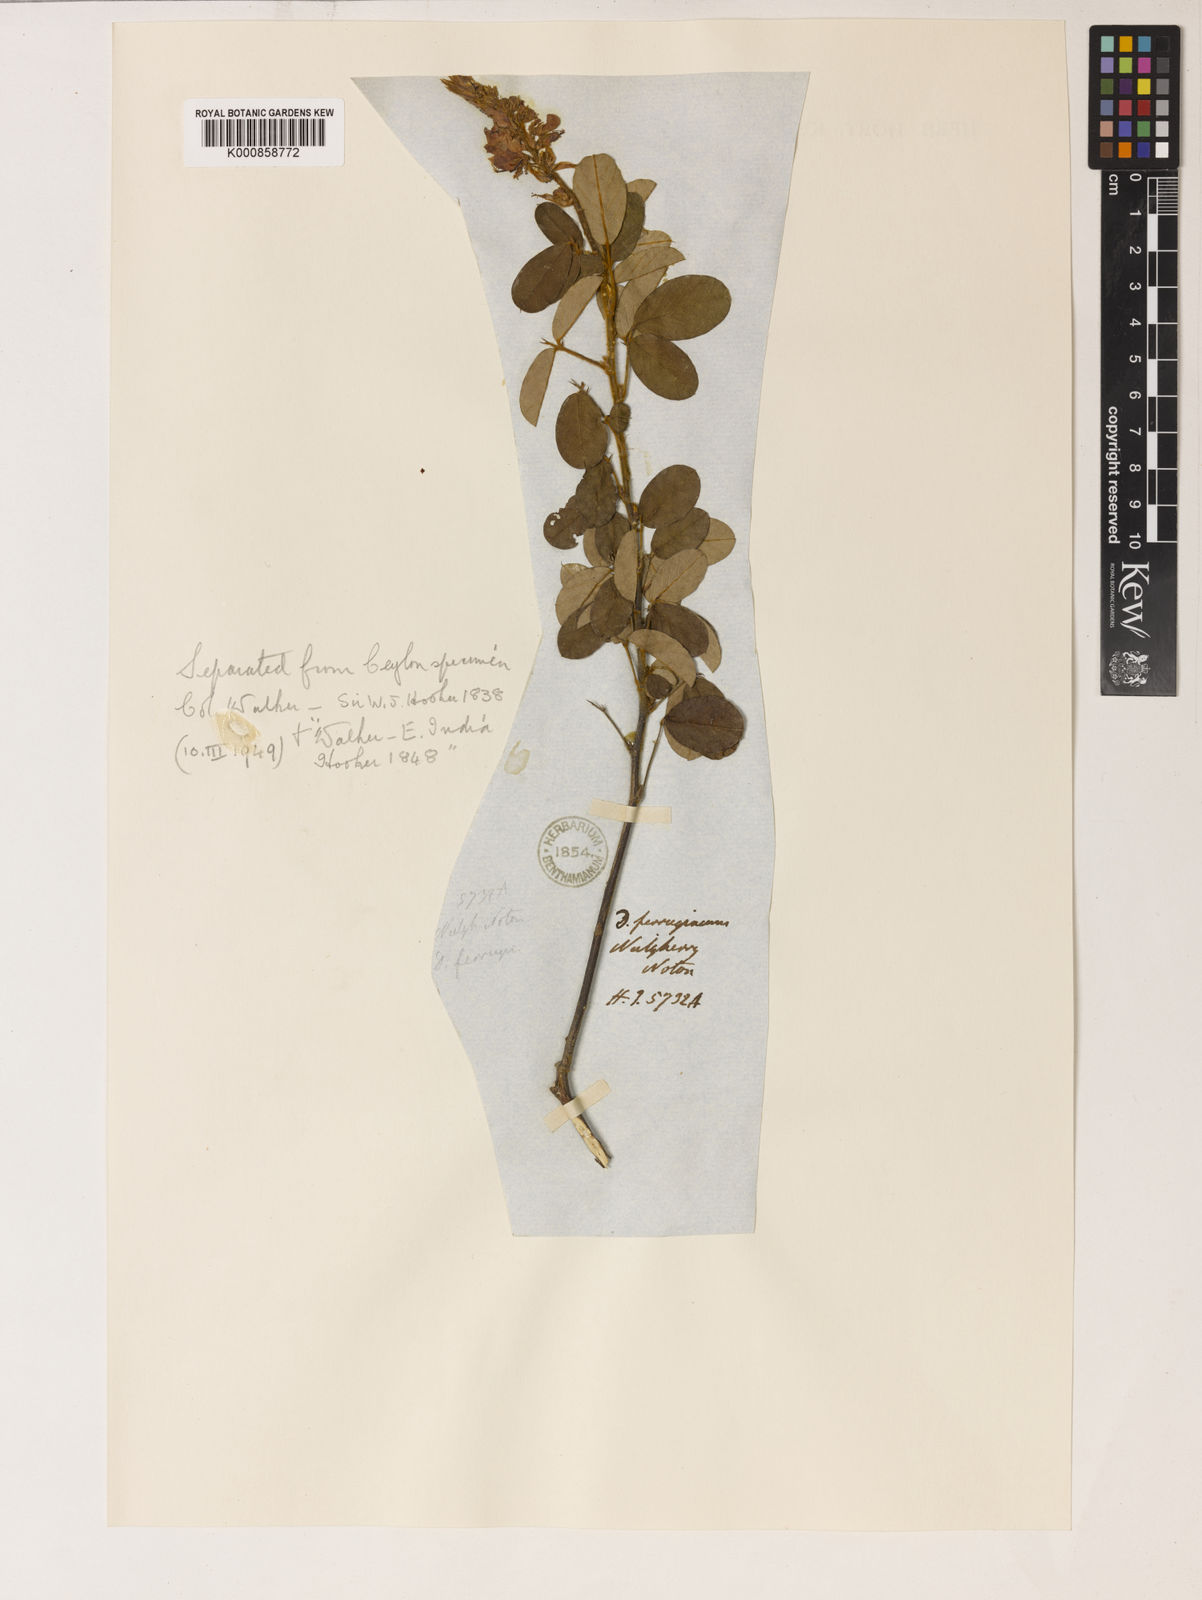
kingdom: Plantae
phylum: Tracheophyta
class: Magnoliopsida
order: Fabales
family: Fabaceae
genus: Desmodium
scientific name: Desmodium
